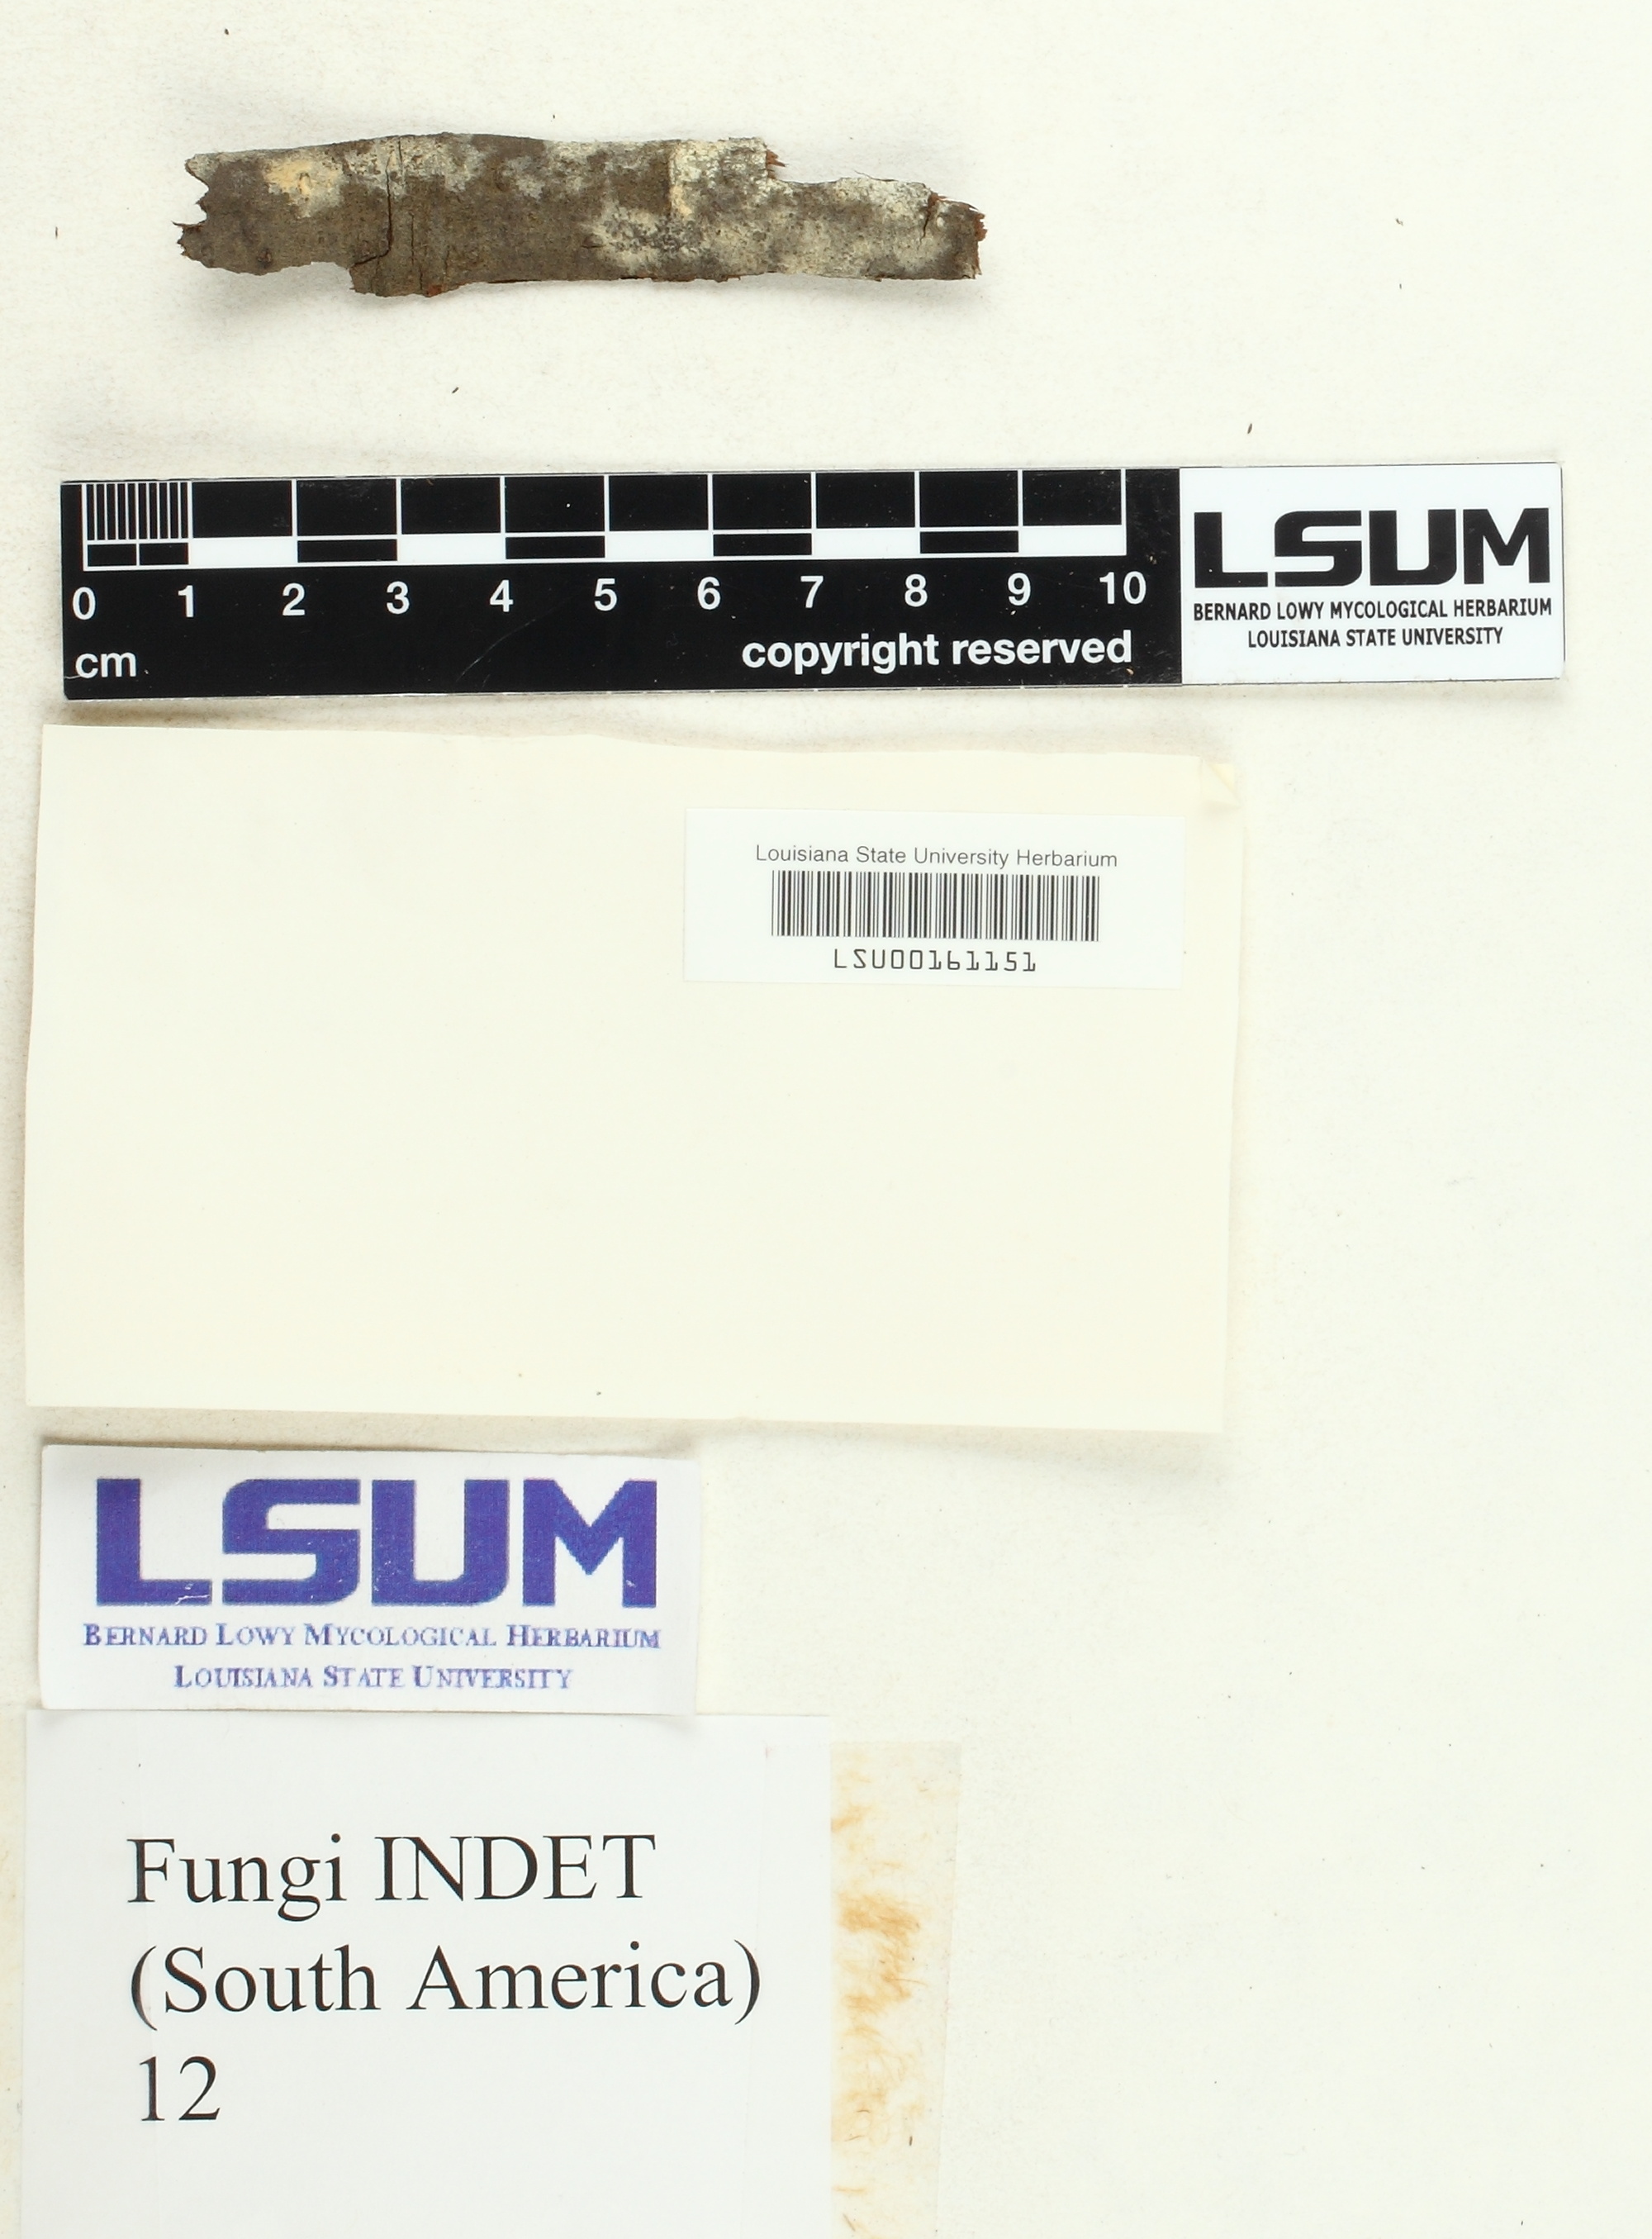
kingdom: Fungi
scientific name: Fungi
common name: Fungi
